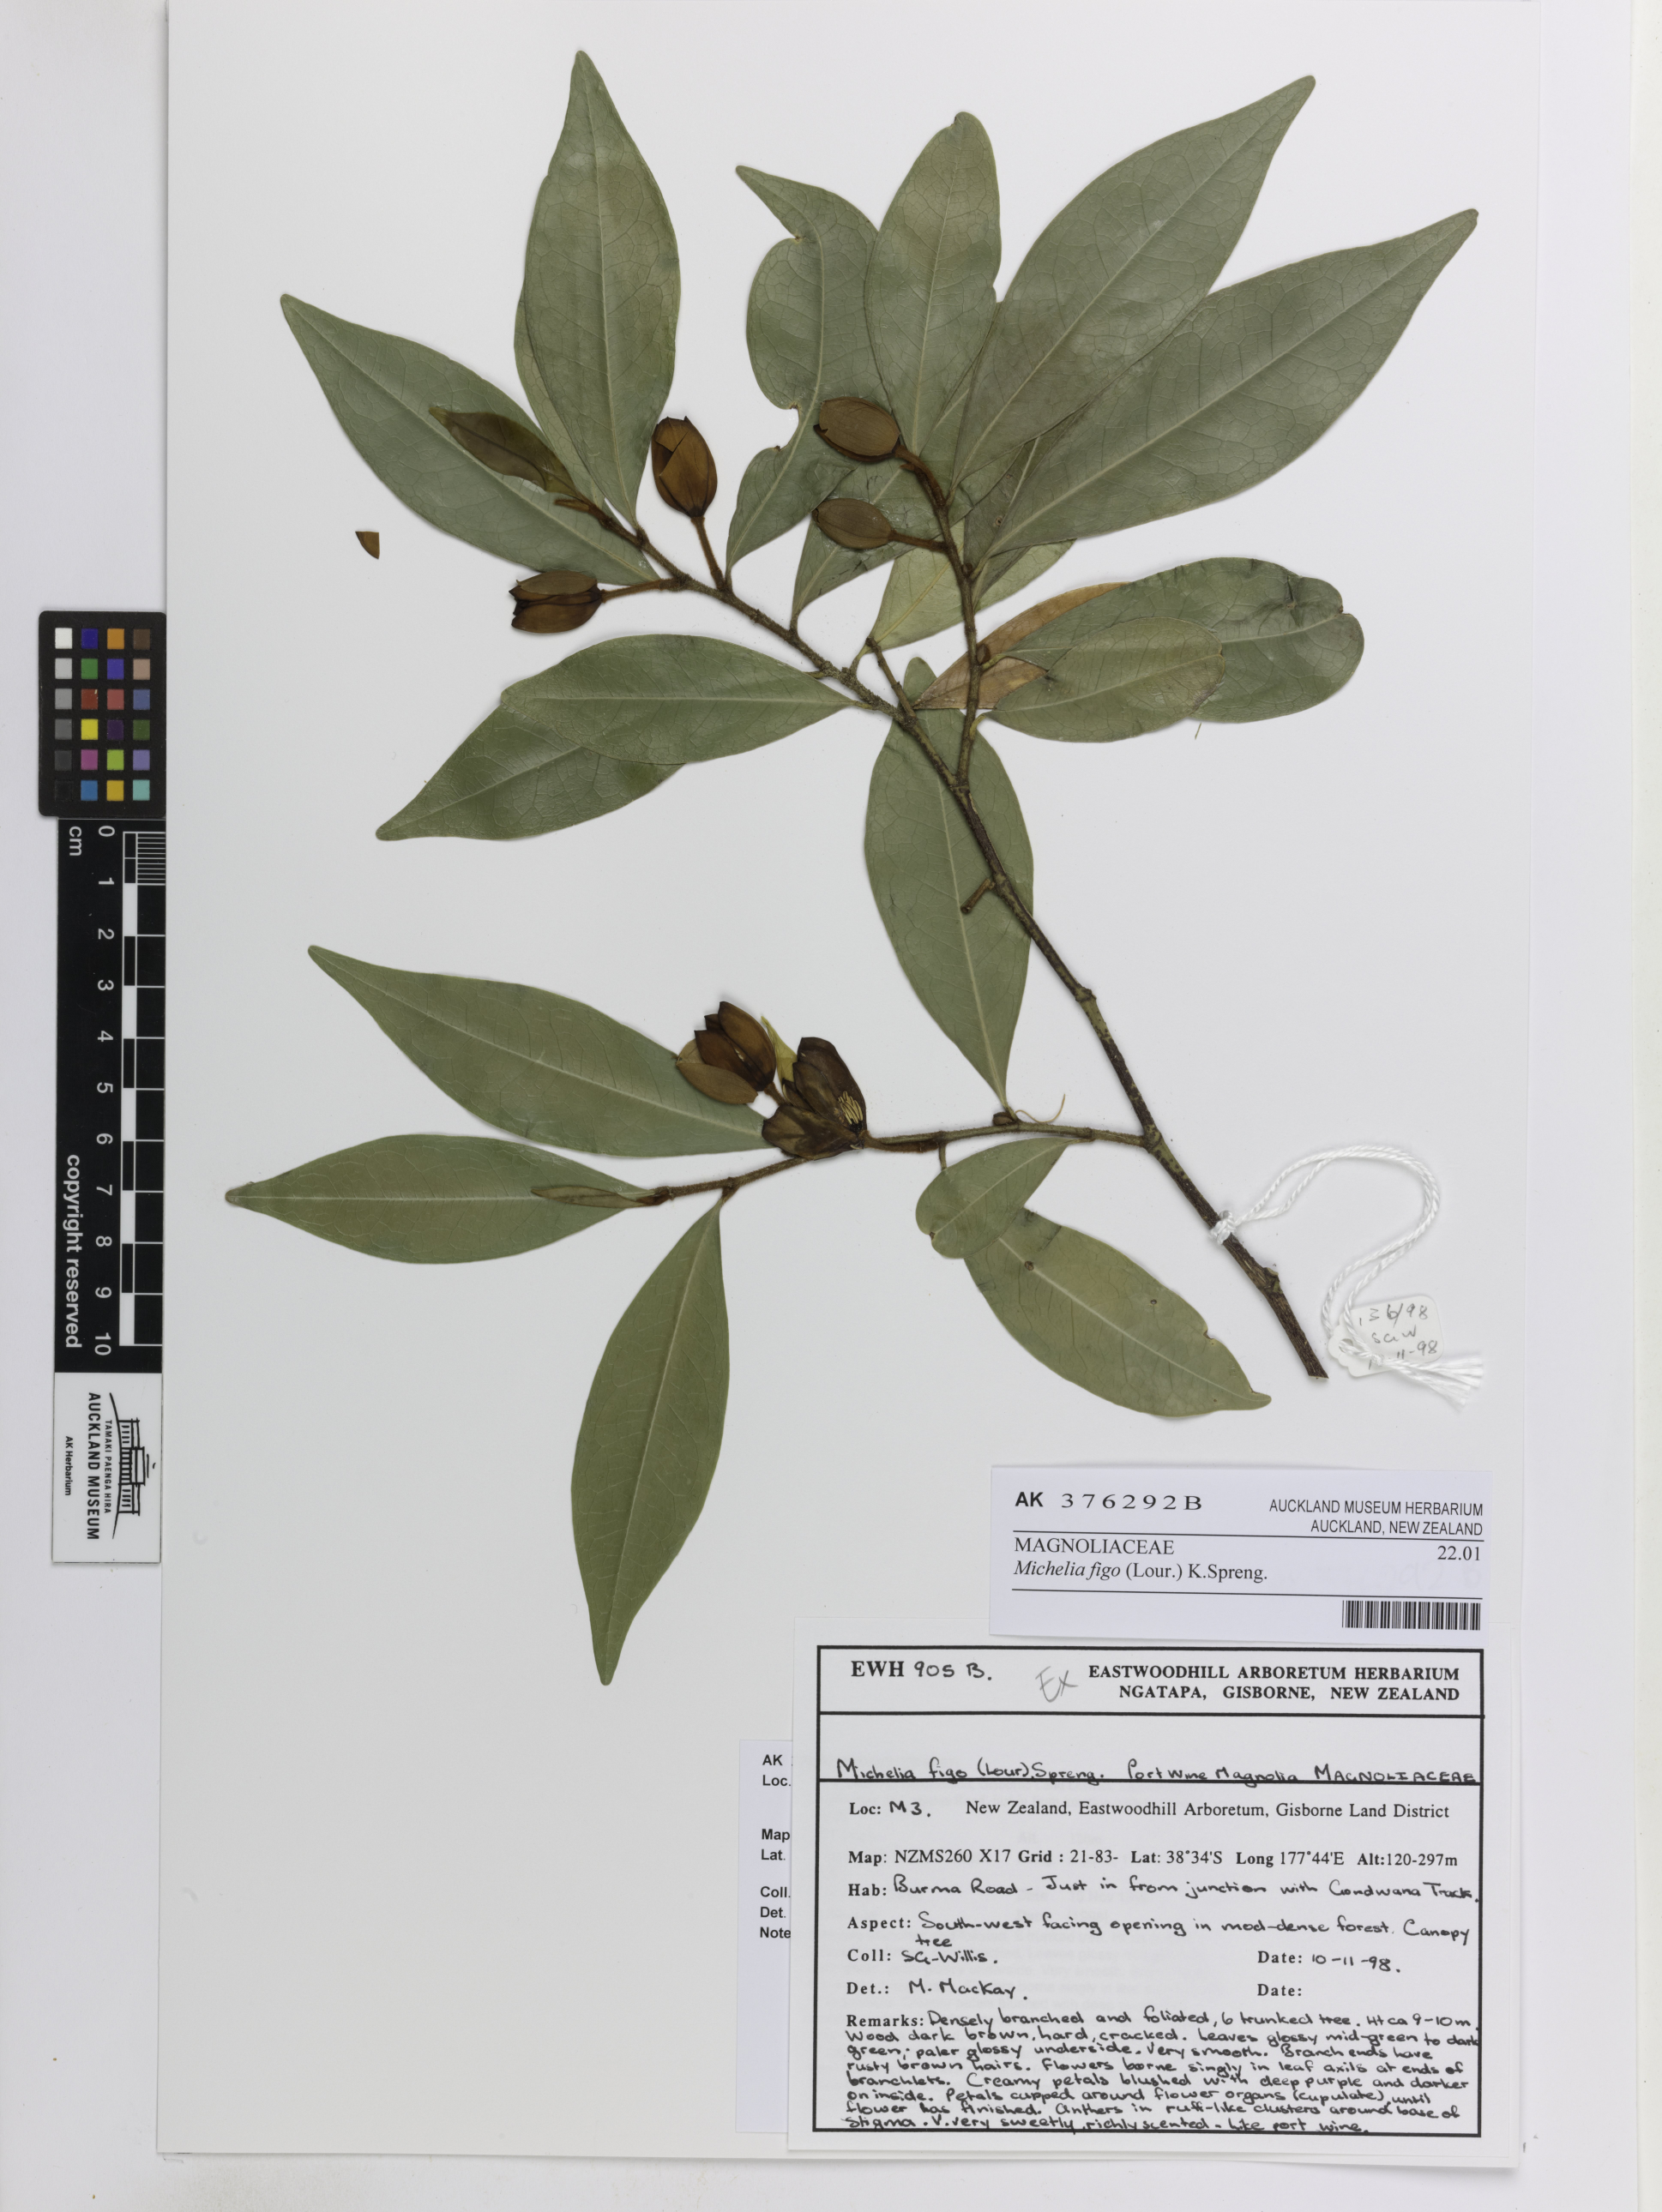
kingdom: Plantae
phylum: Tracheophyta
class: Magnoliopsida
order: Magnoliales
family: Magnoliaceae
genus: Magnolia
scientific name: Magnolia figo
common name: Banana shrub
